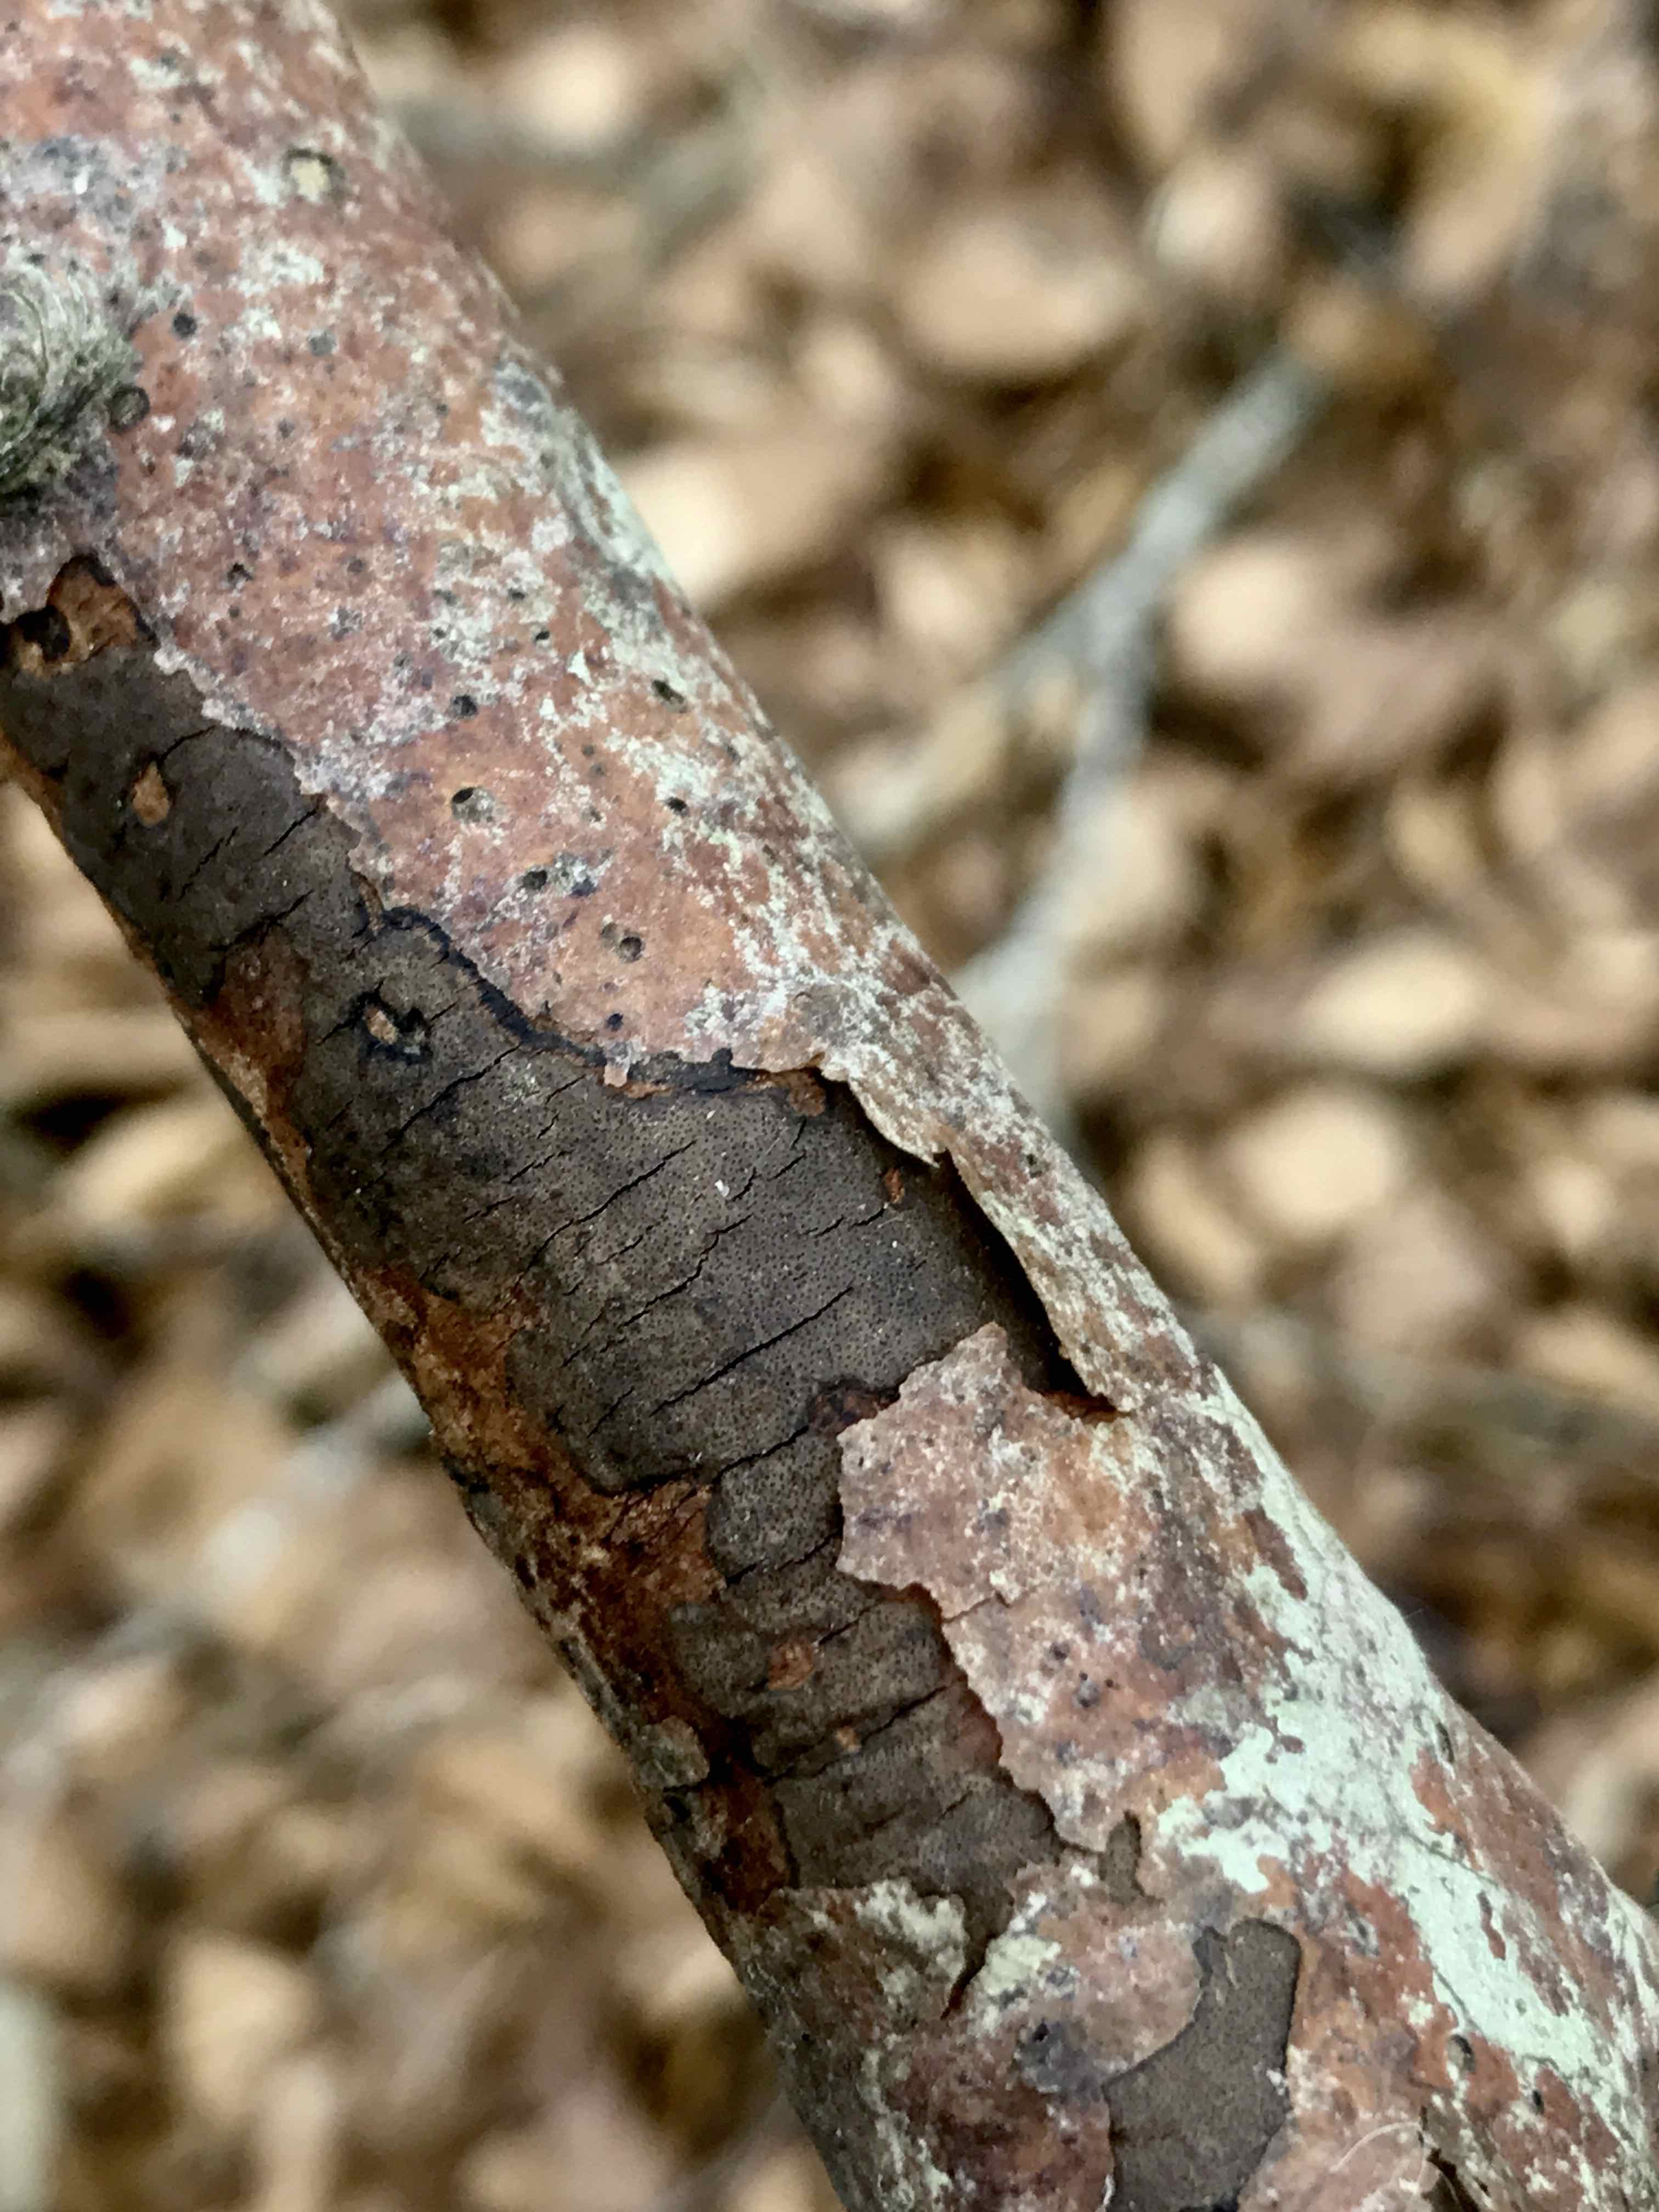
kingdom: Fungi
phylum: Ascomycota
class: Sordariomycetes
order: Xylariales
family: Diatrypaceae
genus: Diatrype
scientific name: Diatrype decorticata
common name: barksprænger-kulskorpe
